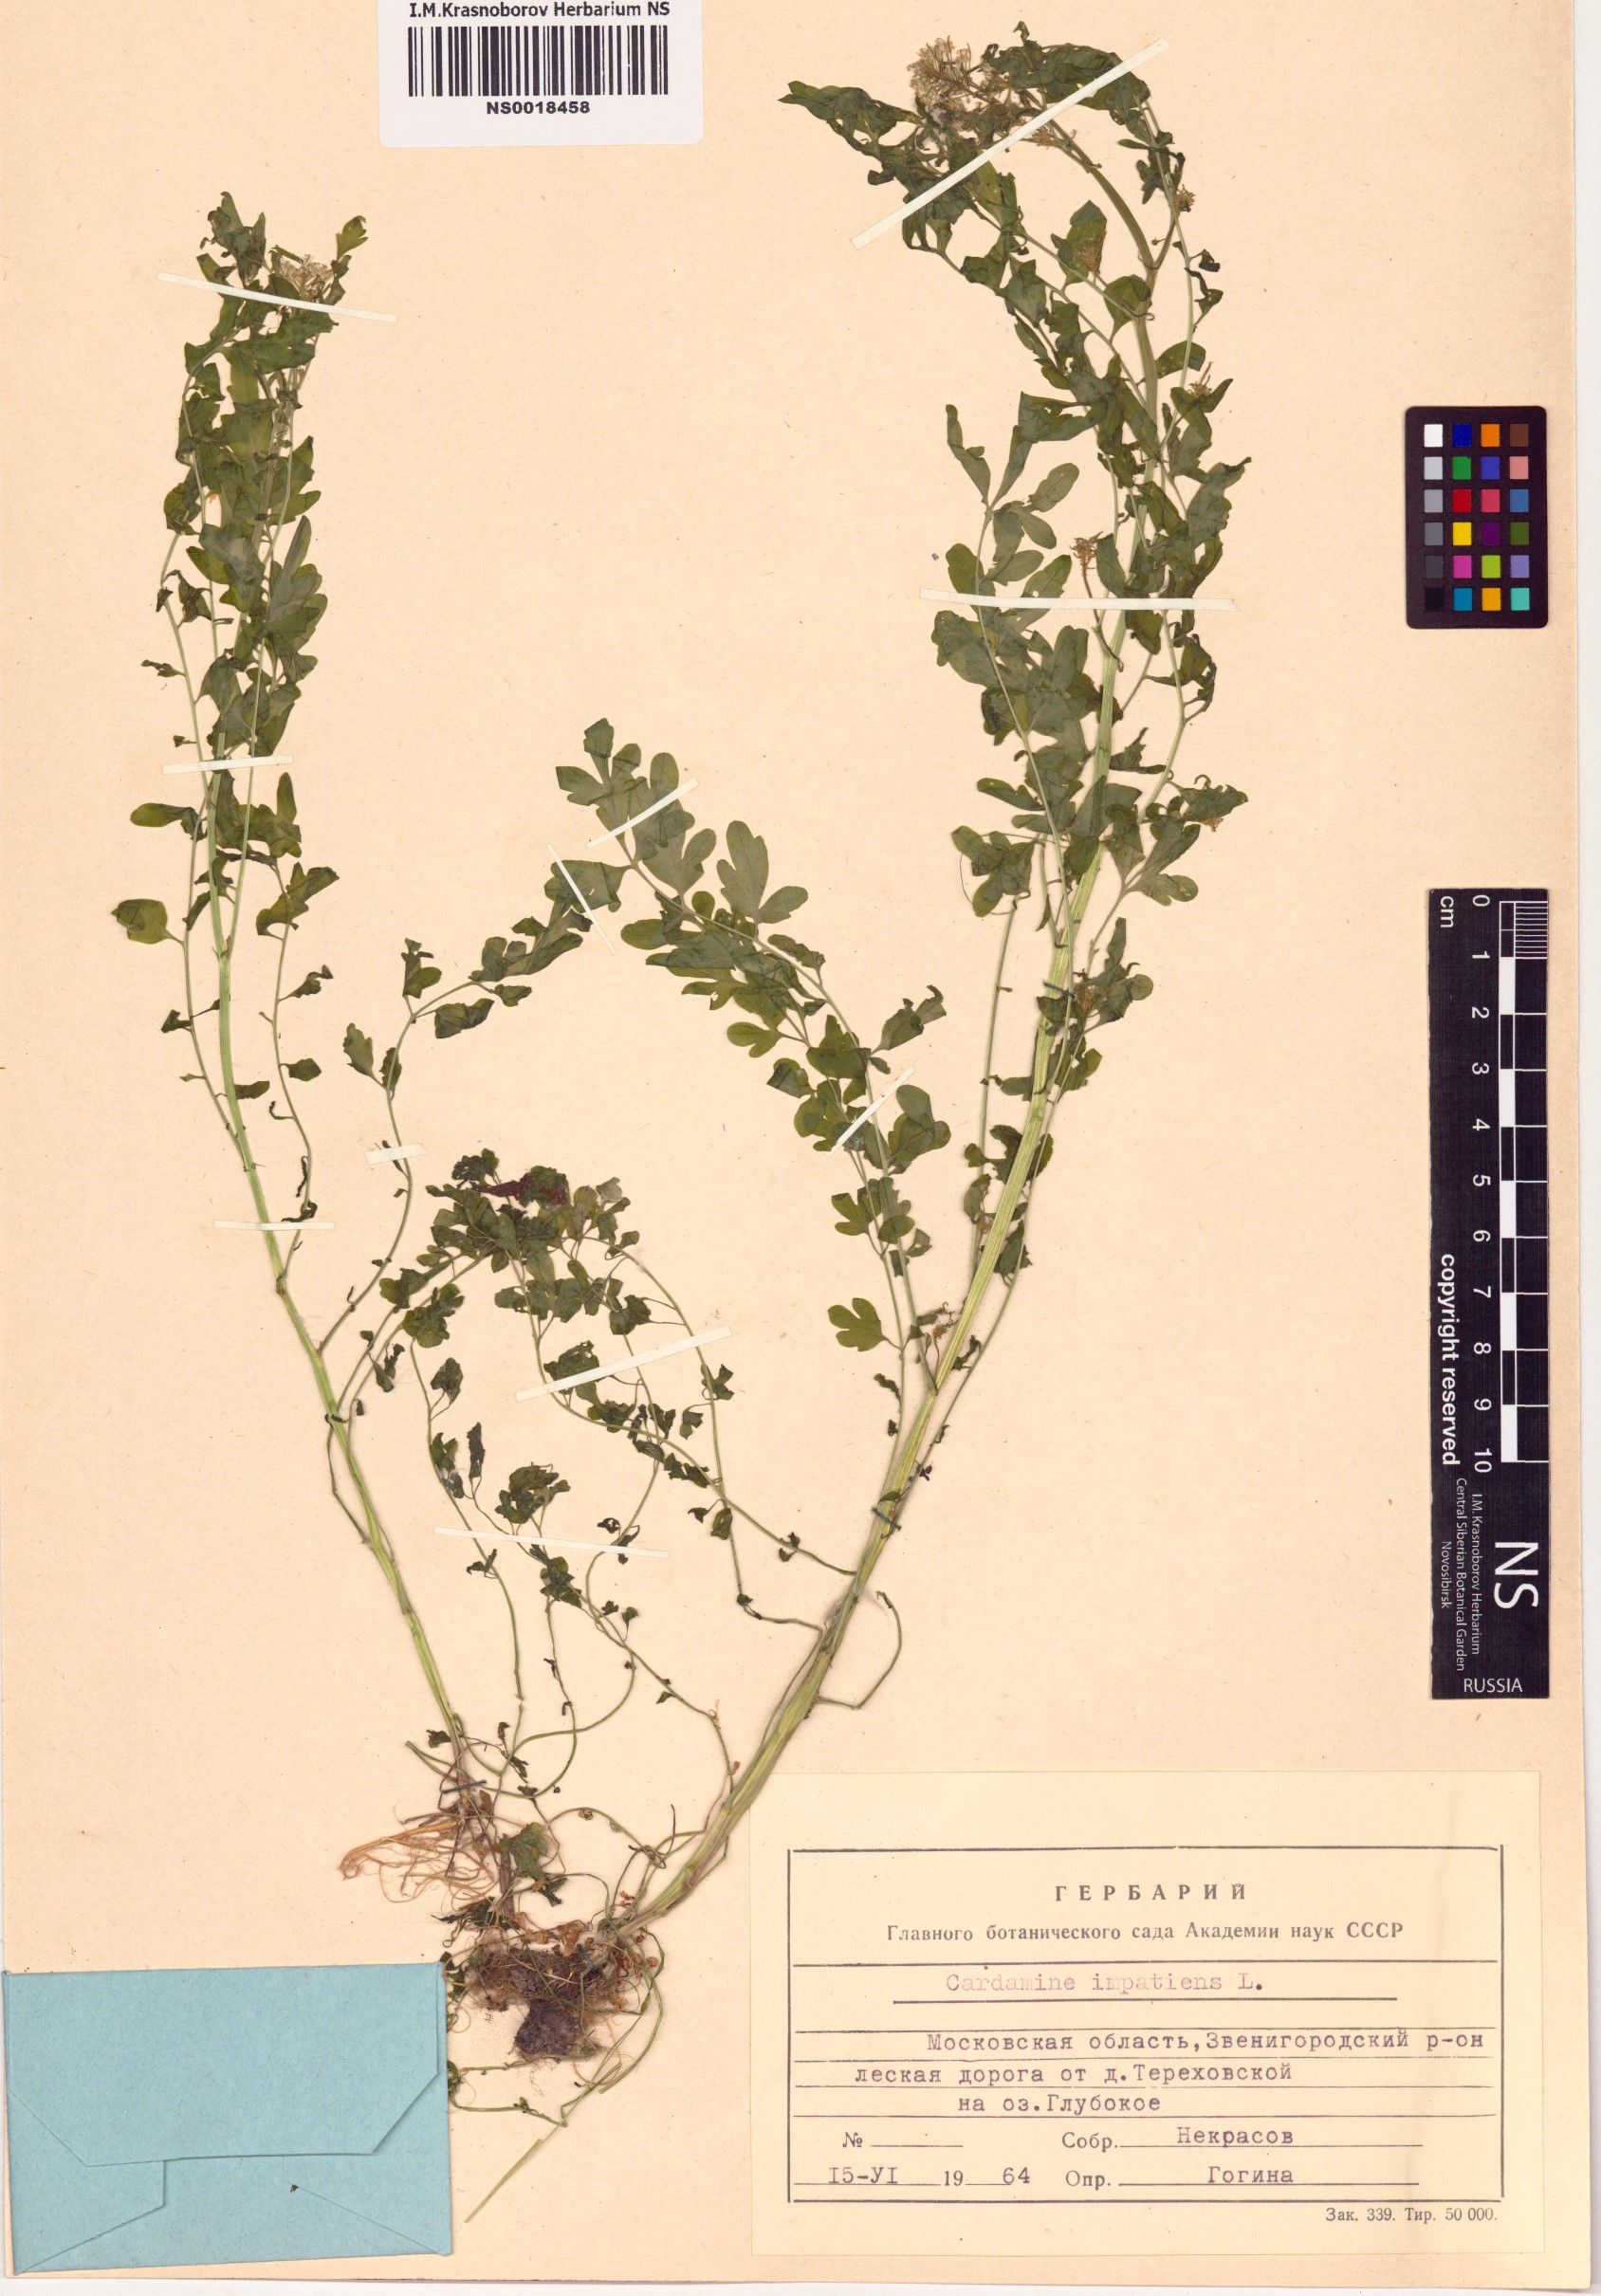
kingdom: Plantae
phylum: Tracheophyta
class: Magnoliopsida
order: Brassicales
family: Brassicaceae
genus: Cardamine
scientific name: Cardamine impatiens
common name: Narrow-leaved bitter-cress
